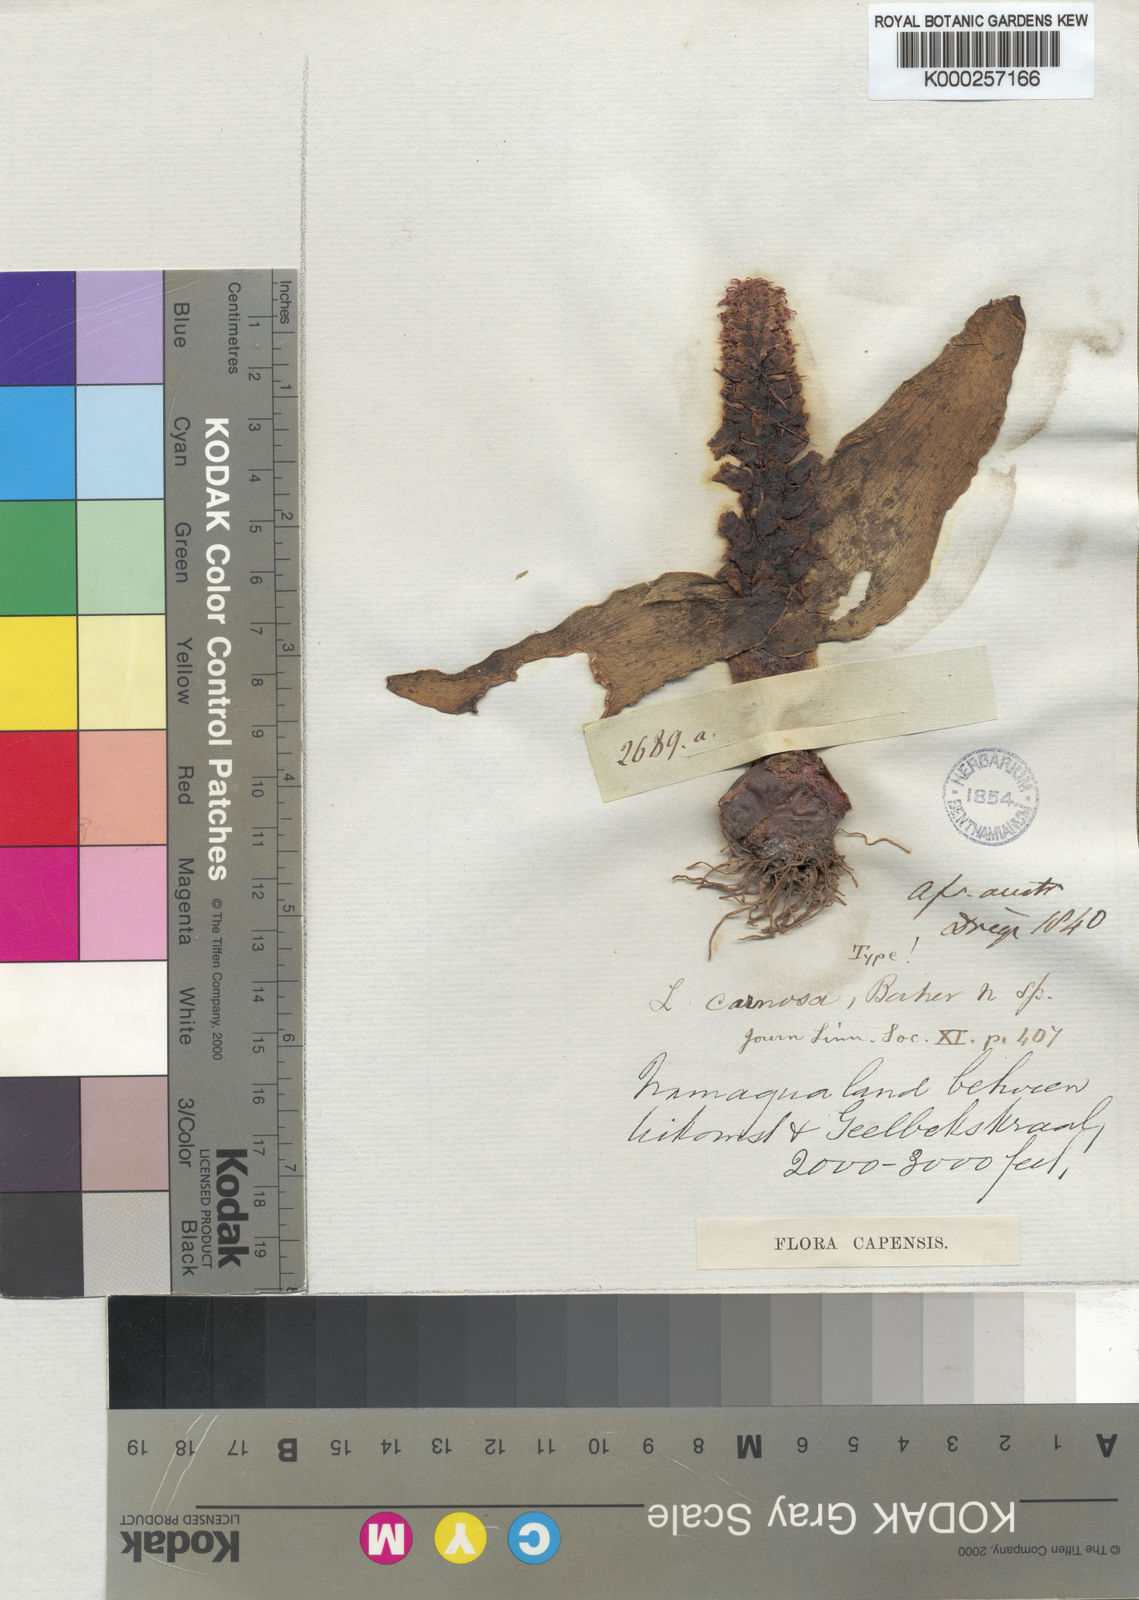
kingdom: Plantae
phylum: Tracheophyta
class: Liliopsida
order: Asparagales
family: Asparagaceae
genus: Lachenalia
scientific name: Lachenalia carnosa
